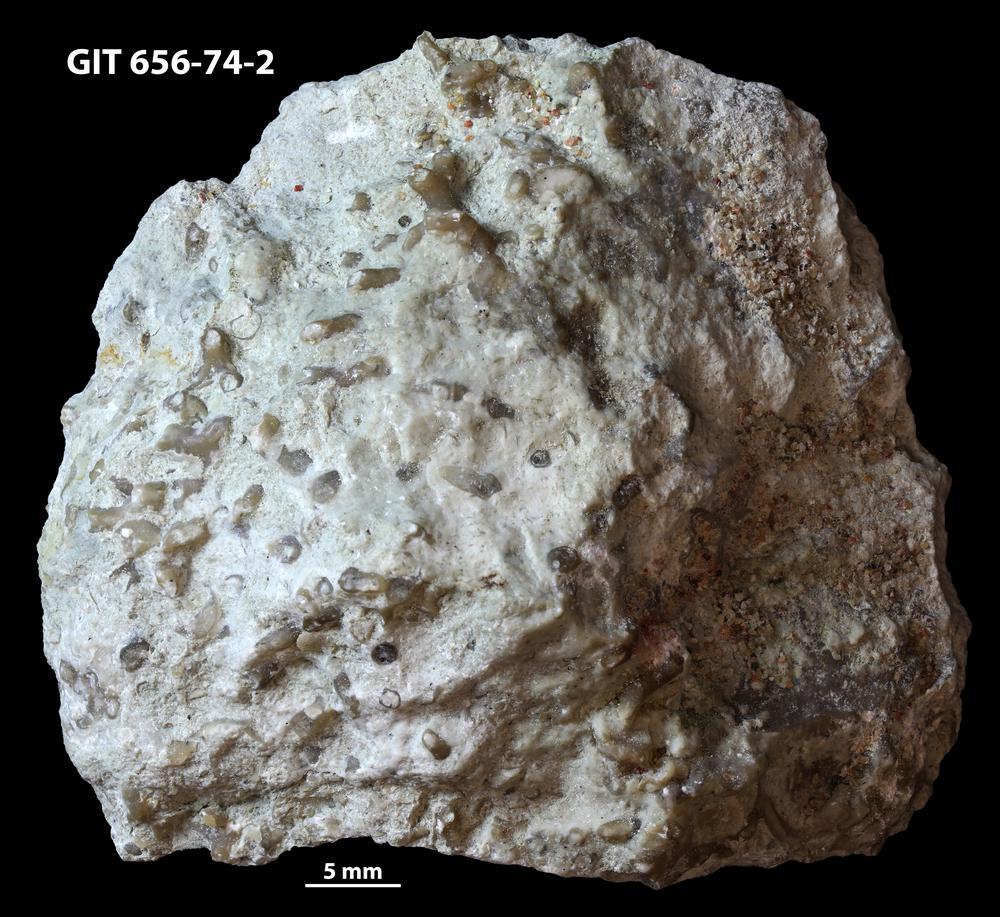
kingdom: Animalia
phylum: Cnidaria
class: Anthozoa
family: Auloporidae
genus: Aulopora
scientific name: Aulopora
